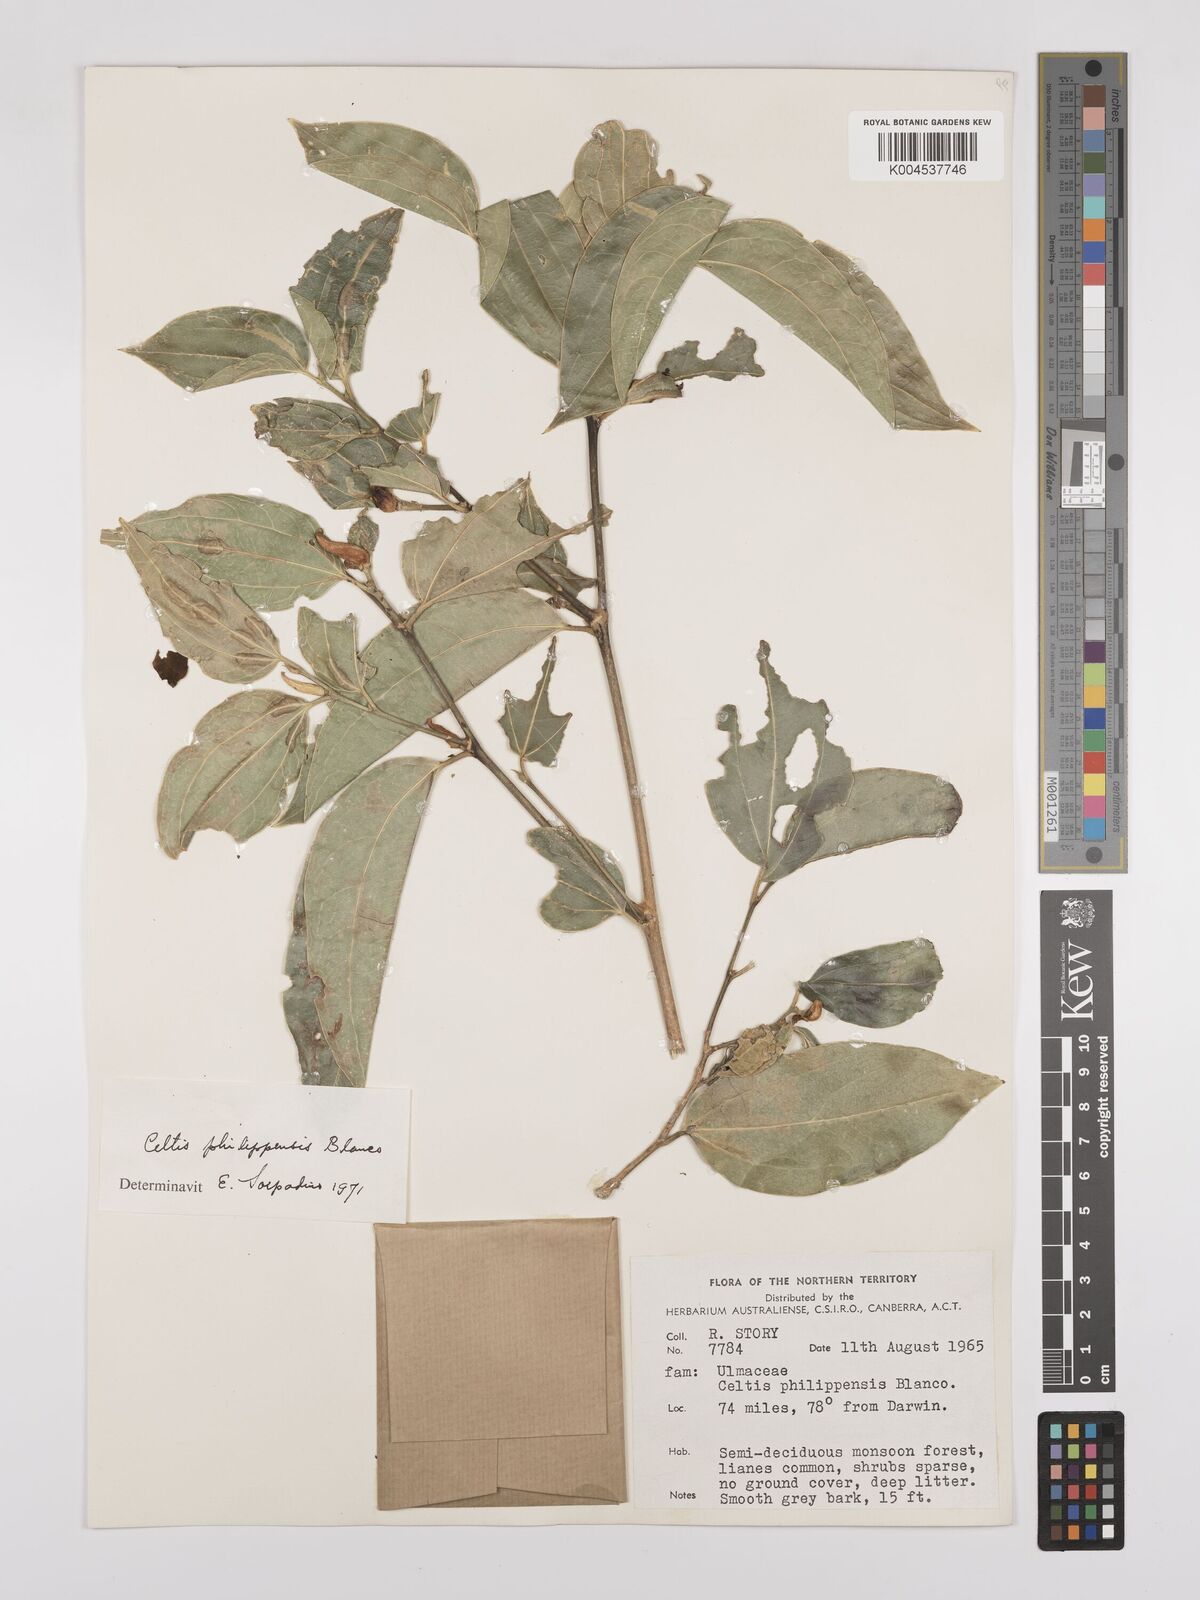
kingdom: Plantae
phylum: Tracheophyta
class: Magnoliopsida
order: Rosales
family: Cannabaceae
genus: Celtis
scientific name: Celtis philippensis
